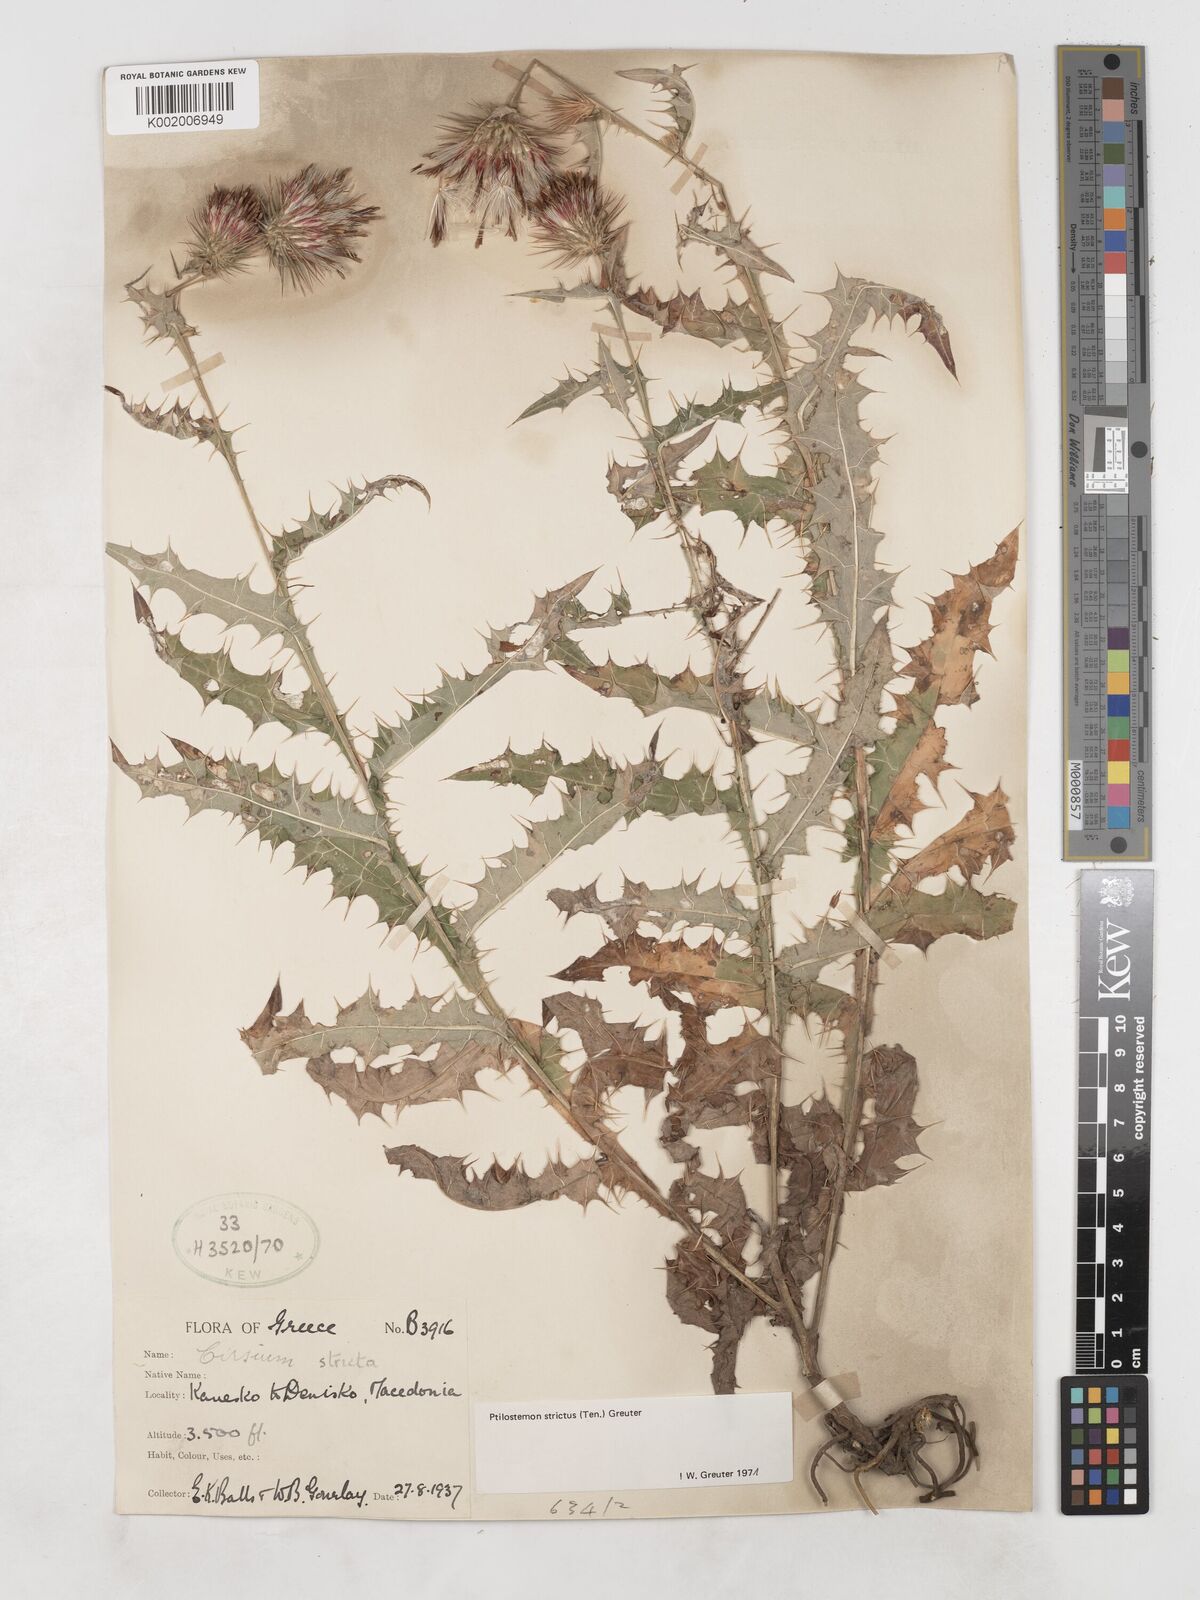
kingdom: Plantae
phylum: Tracheophyta
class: Magnoliopsida
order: Asterales
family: Asteraceae
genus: Ptilostemon
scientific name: Ptilostemon strictus
